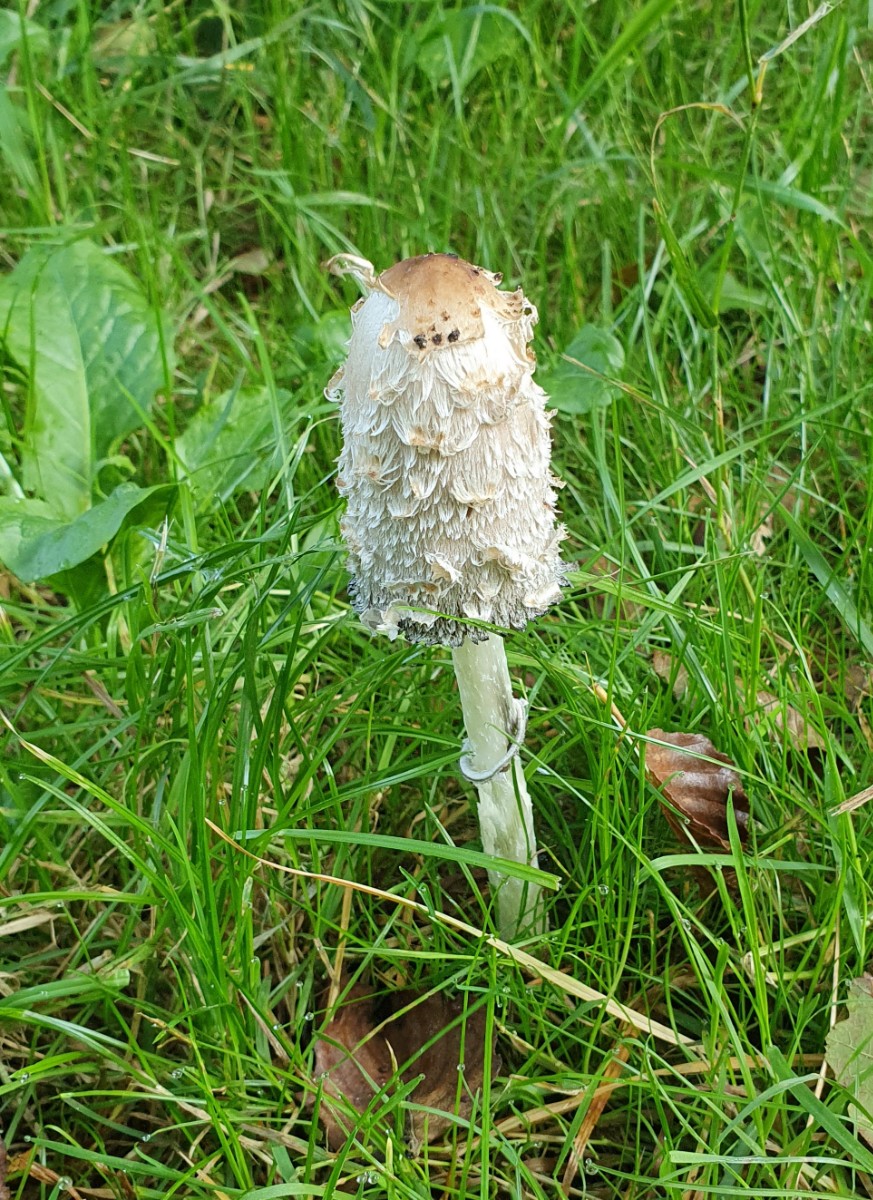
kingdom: Fungi
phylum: Basidiomycota
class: Agaricomycetes
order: Agaricales
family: Agaricaceae
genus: Coprinus
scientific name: Coprinus comatus
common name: stor parykhat
